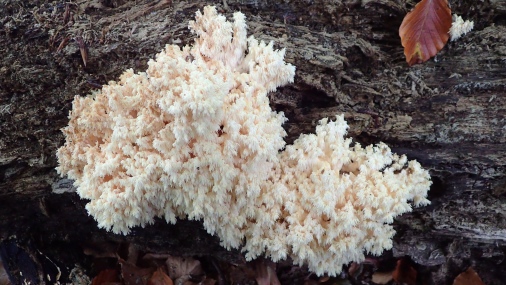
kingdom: Fungi
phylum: Basidiomycota
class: Agaricomycetes
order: Russulales
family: Hericiaceae
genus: Hericium
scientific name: Hericium coralloides
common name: koralpigsvamp
